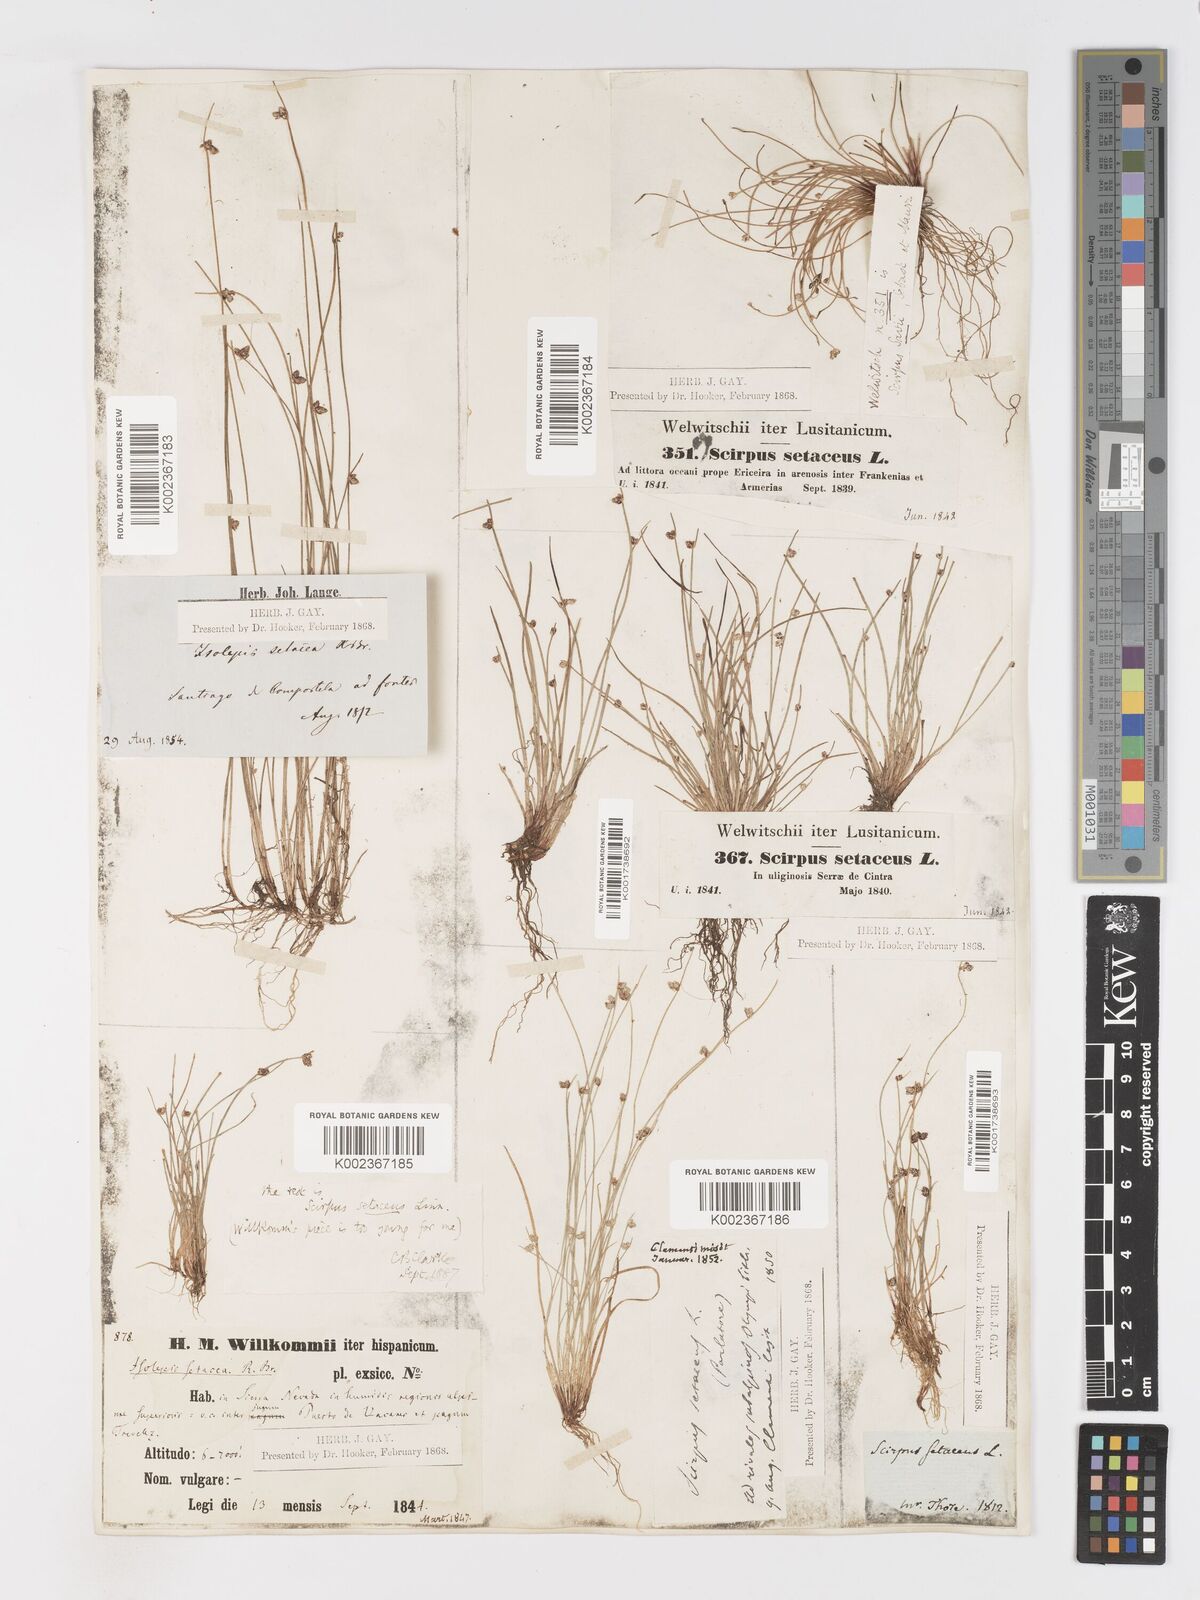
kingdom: Plantae
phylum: Tracheophyta
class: Liliopsida
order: Poales
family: Cyperaceae
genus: Isolepis
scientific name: Isolepis setacea
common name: Bristle club-rush
